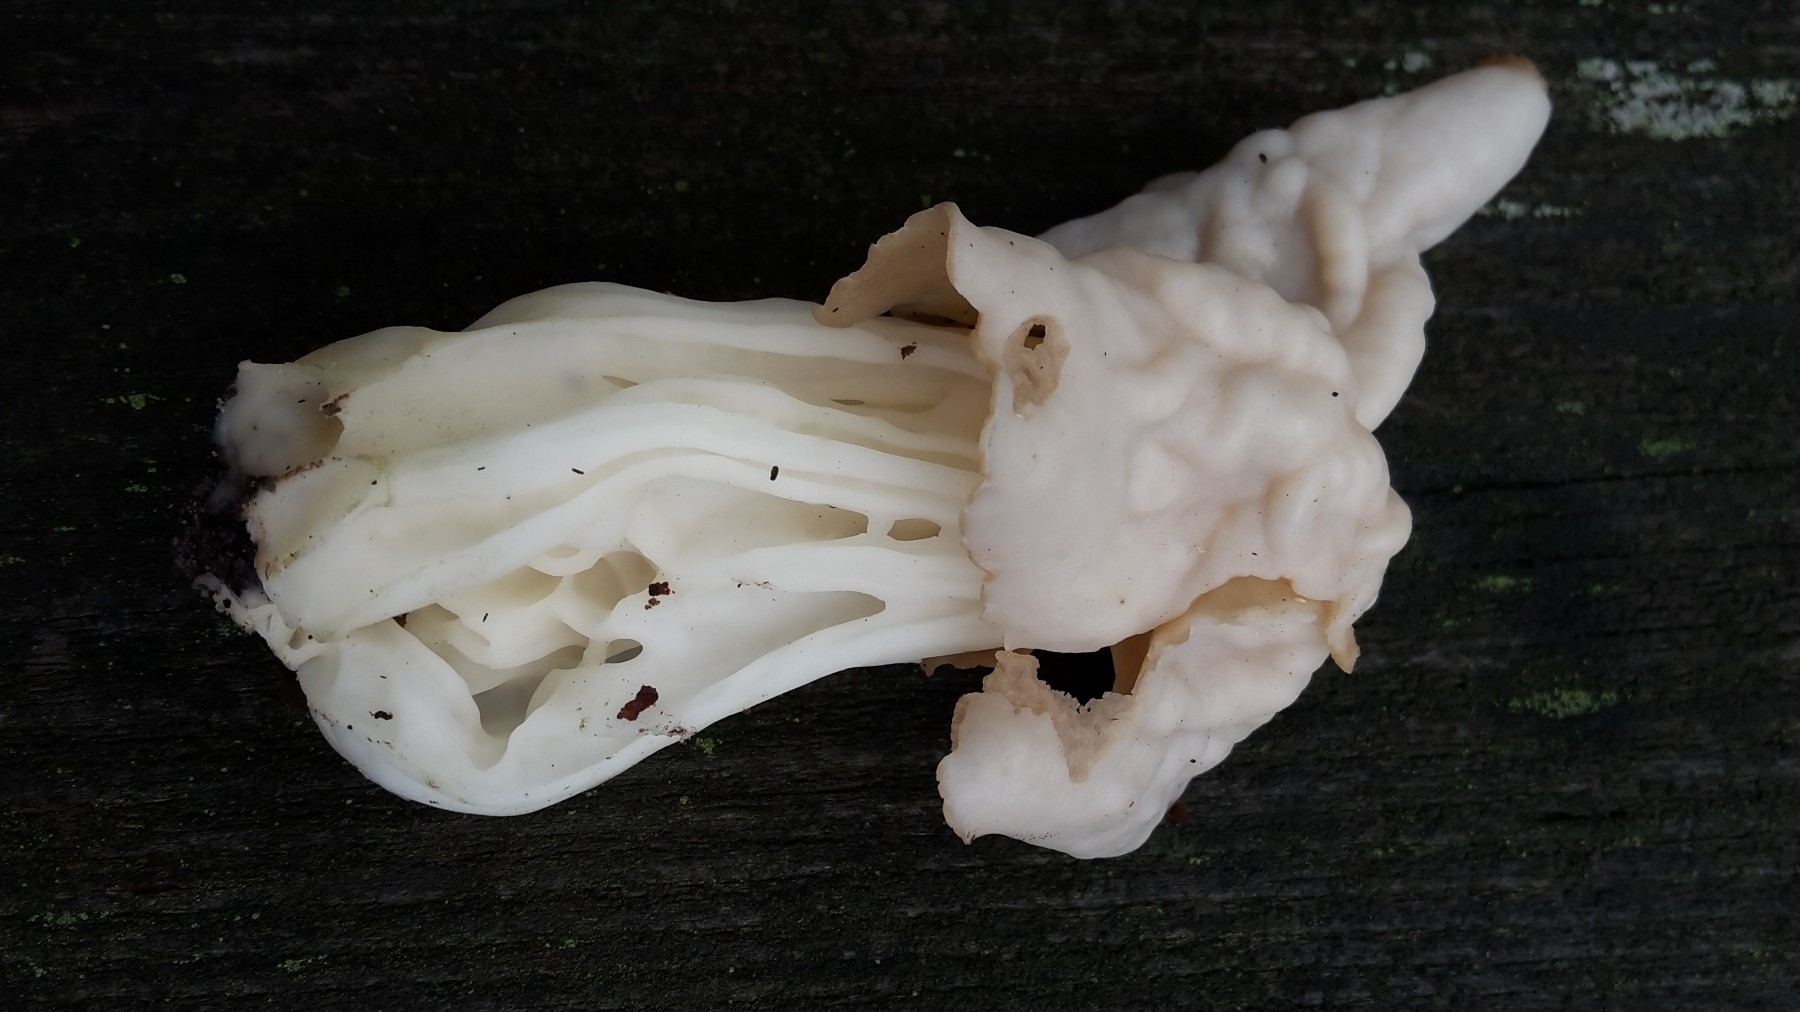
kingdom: Fungi
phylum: Ascomycota
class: Pezizomycetes
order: Pezizales
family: Helvellaceae
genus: Helvella
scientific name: Helvella crispa
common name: kruset foldhat
